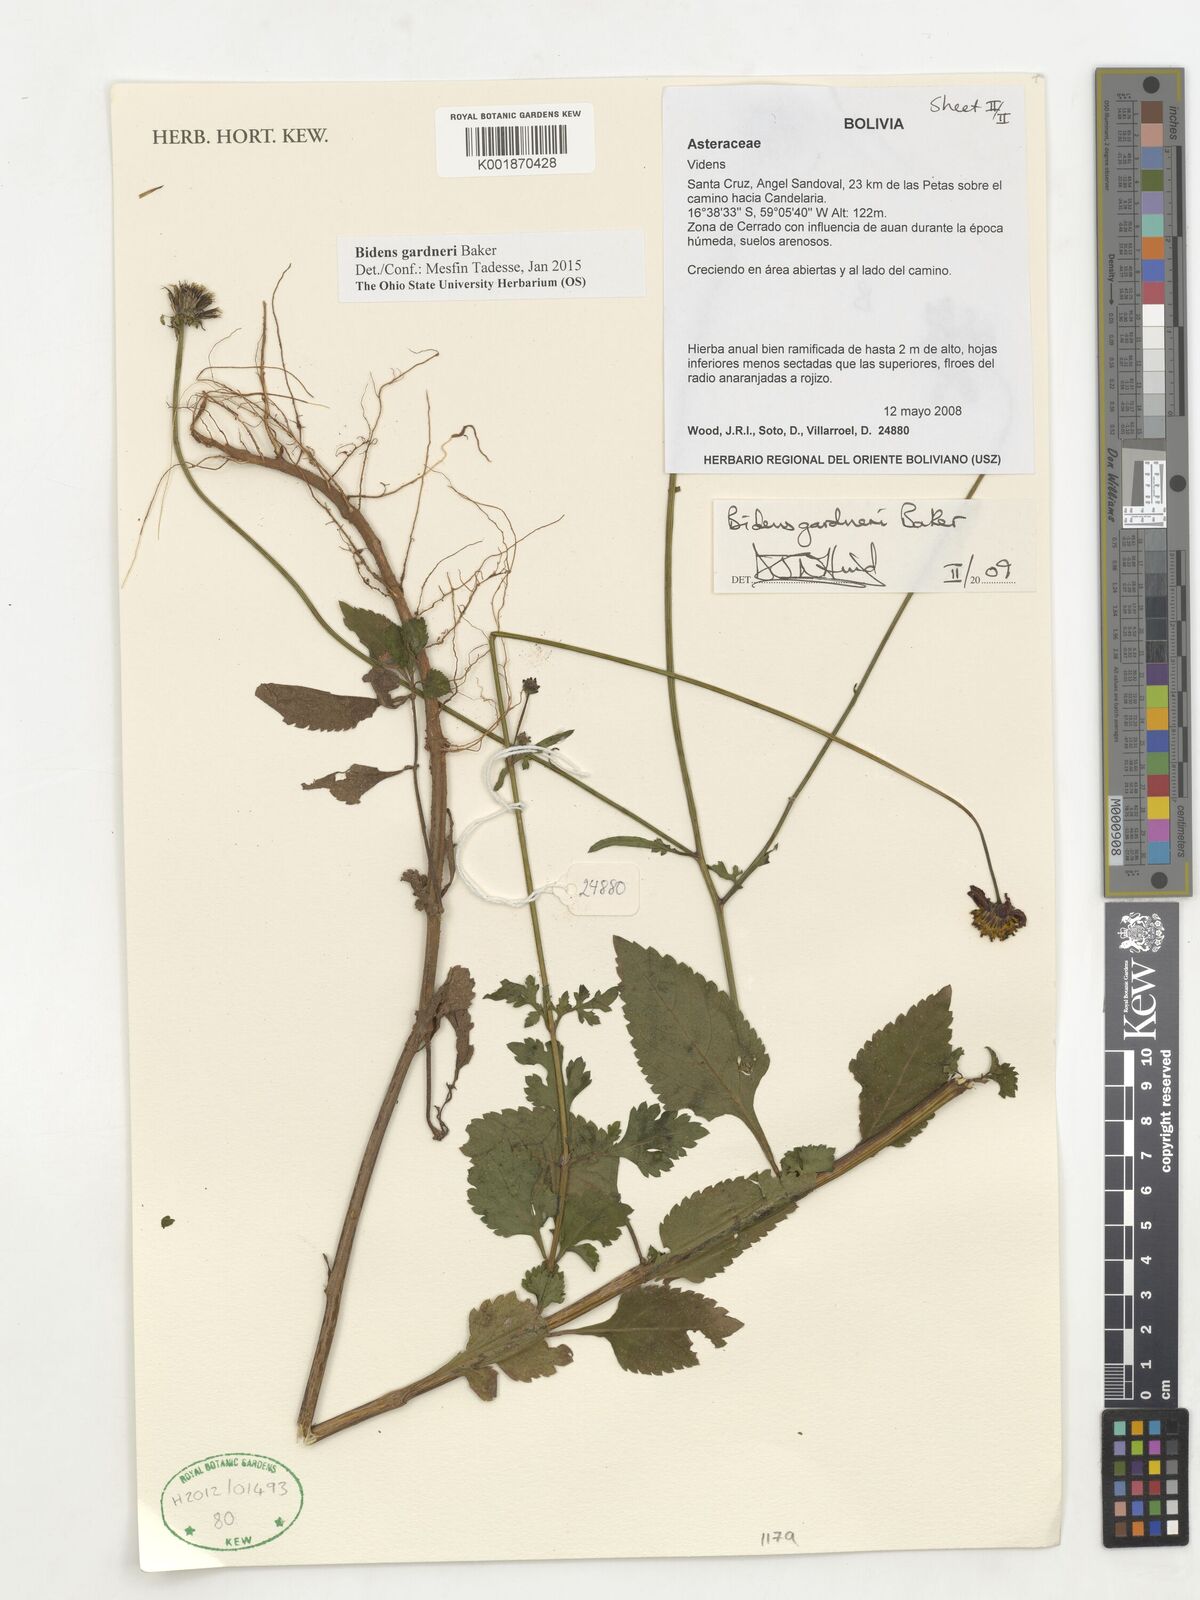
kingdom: Plantae
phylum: Tracheophyta
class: Magnoliopsida
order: Asterales
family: Asteraceae
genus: Bidens
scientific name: Bidens gardneri
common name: Ridge beggartick
